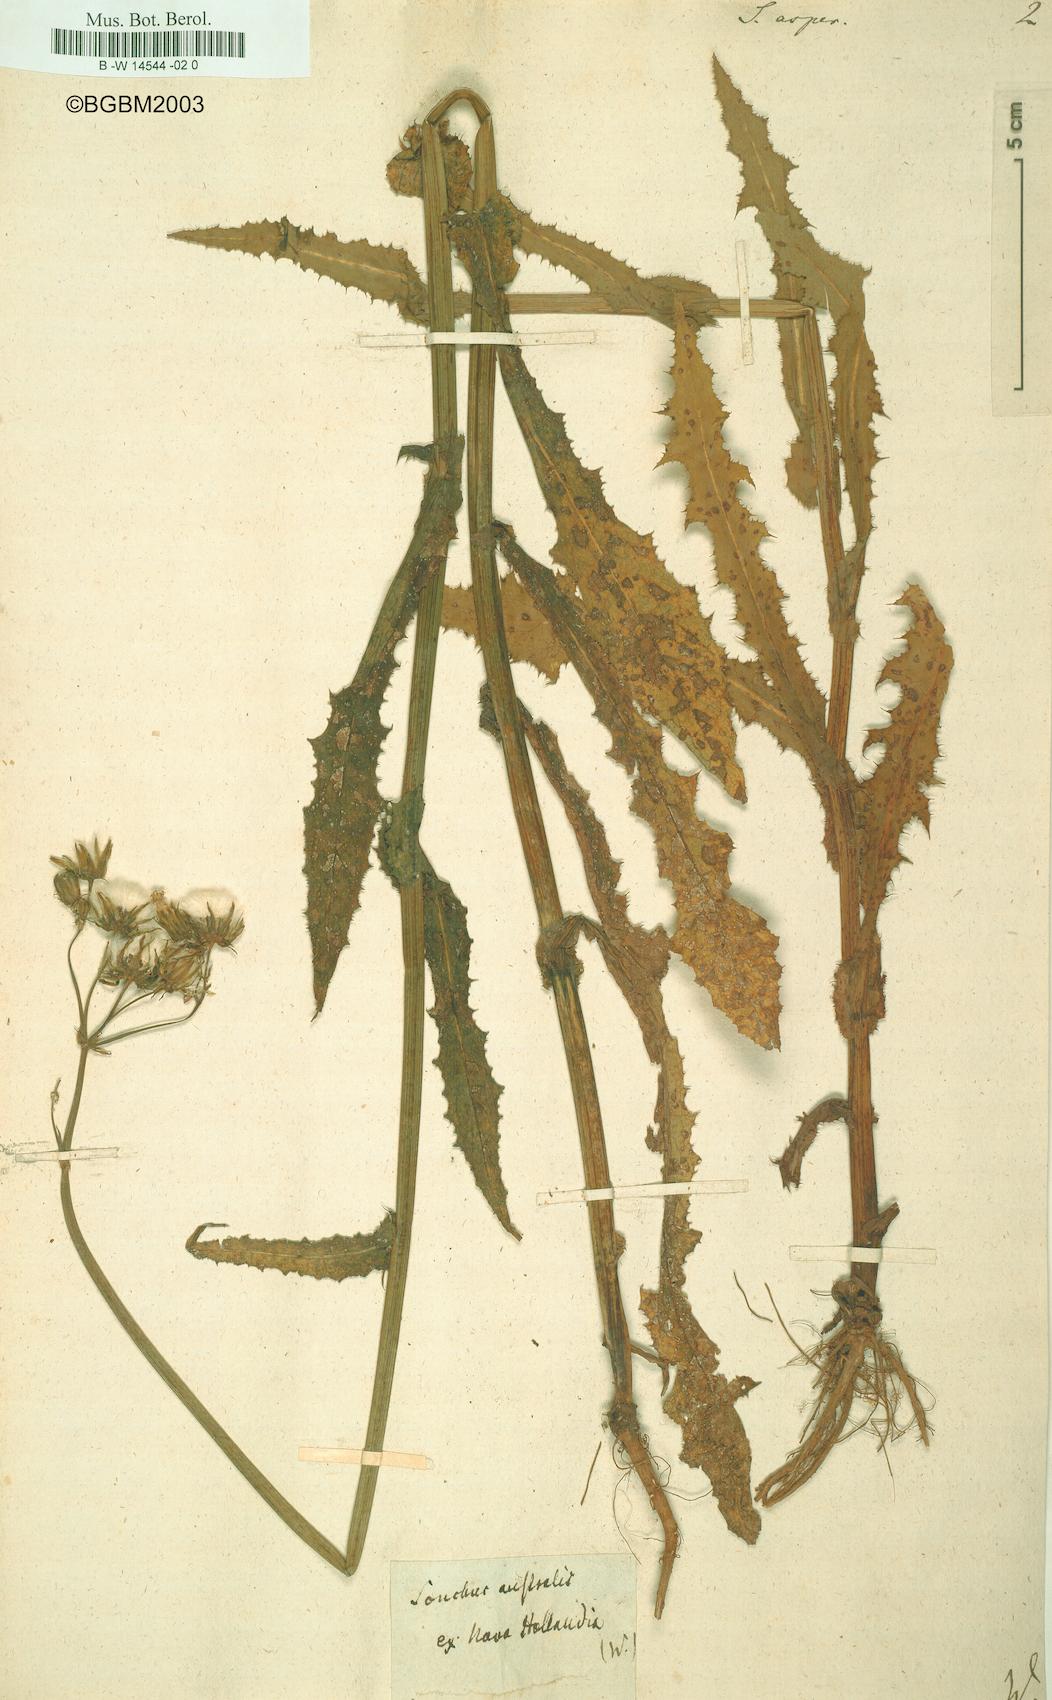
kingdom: Plantae
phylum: Tracheophyta
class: Magnoliopsida
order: Asterales
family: Asteraceae
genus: Sonchus
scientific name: Sonchus asper
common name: Prickly sow-thistle
